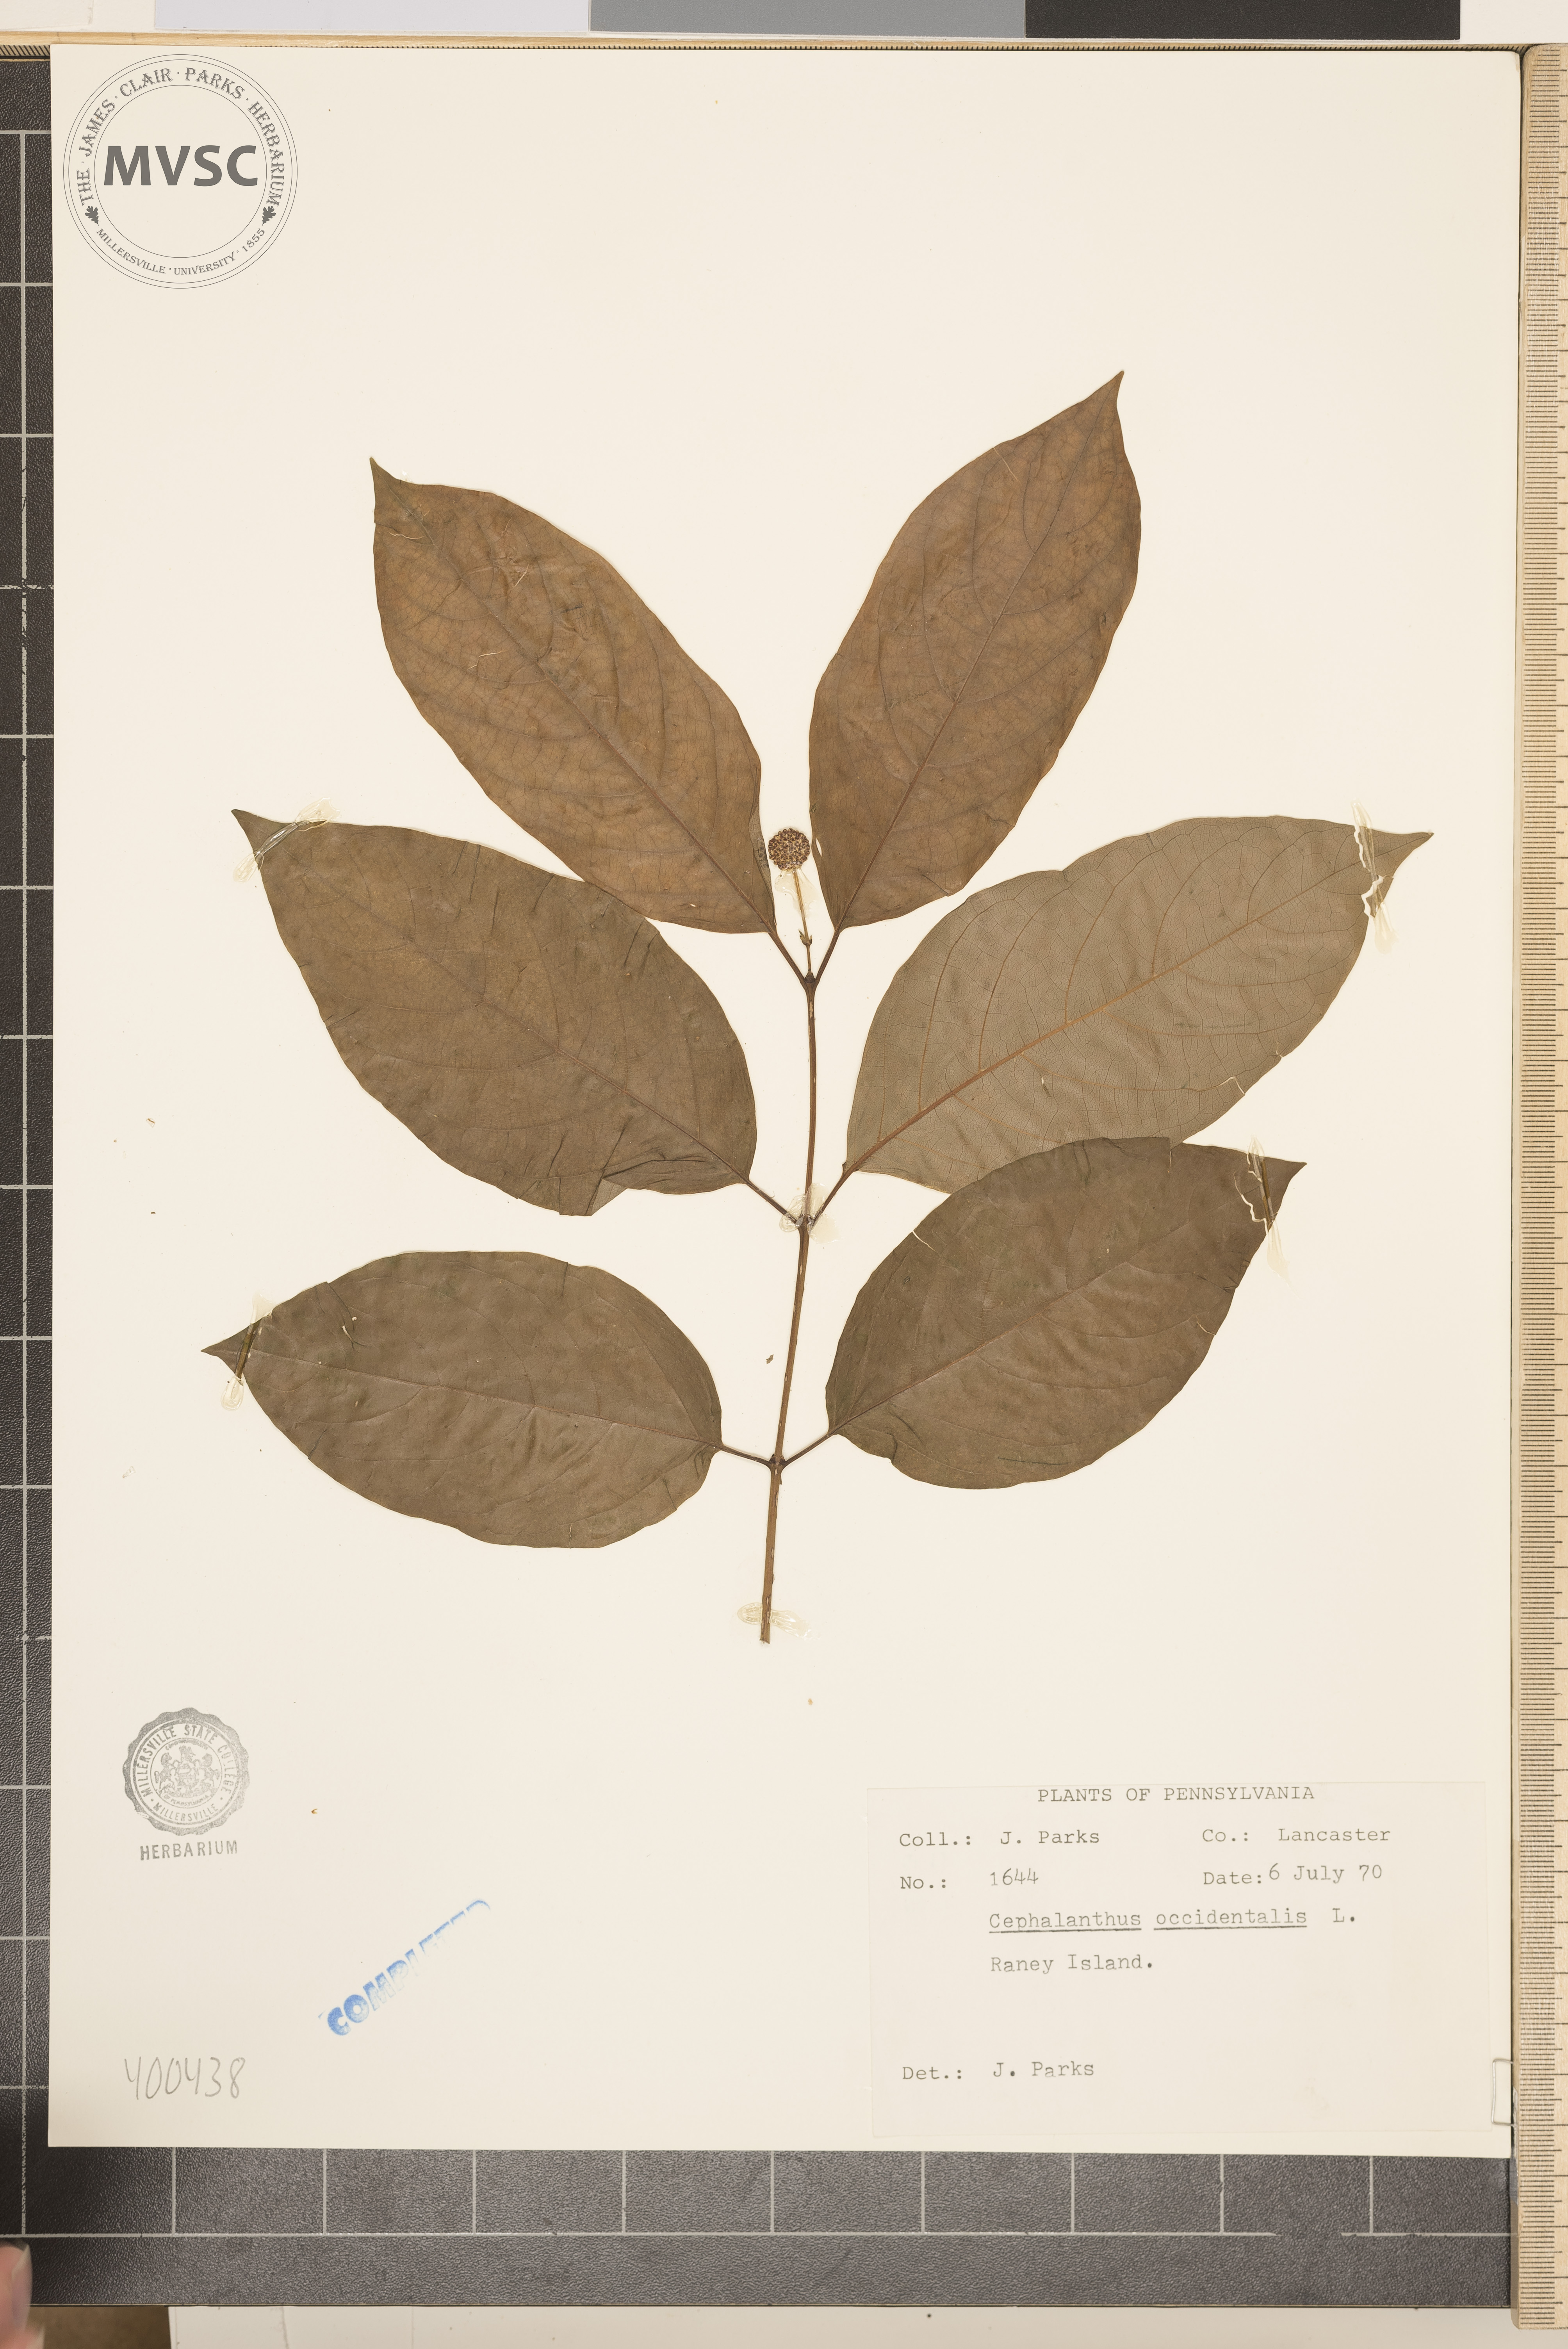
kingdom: Plantae
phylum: Tracheophyta
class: Magnoliopsida
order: Gentianales
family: Rubiaceae
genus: Cephalanthus
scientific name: Cephalanthus occidentalis
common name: buttonbush
